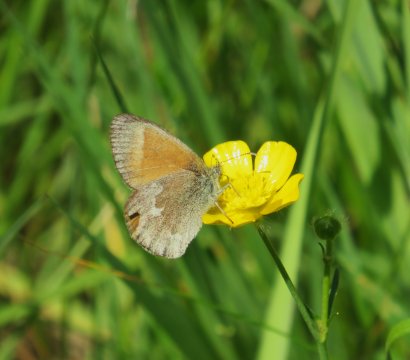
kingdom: Animalia
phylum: Arthropoda
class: Insecta
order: Lepidoptera
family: Nymphalidae
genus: Coenonympha
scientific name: Coenonympha tullia
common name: Large Heath
